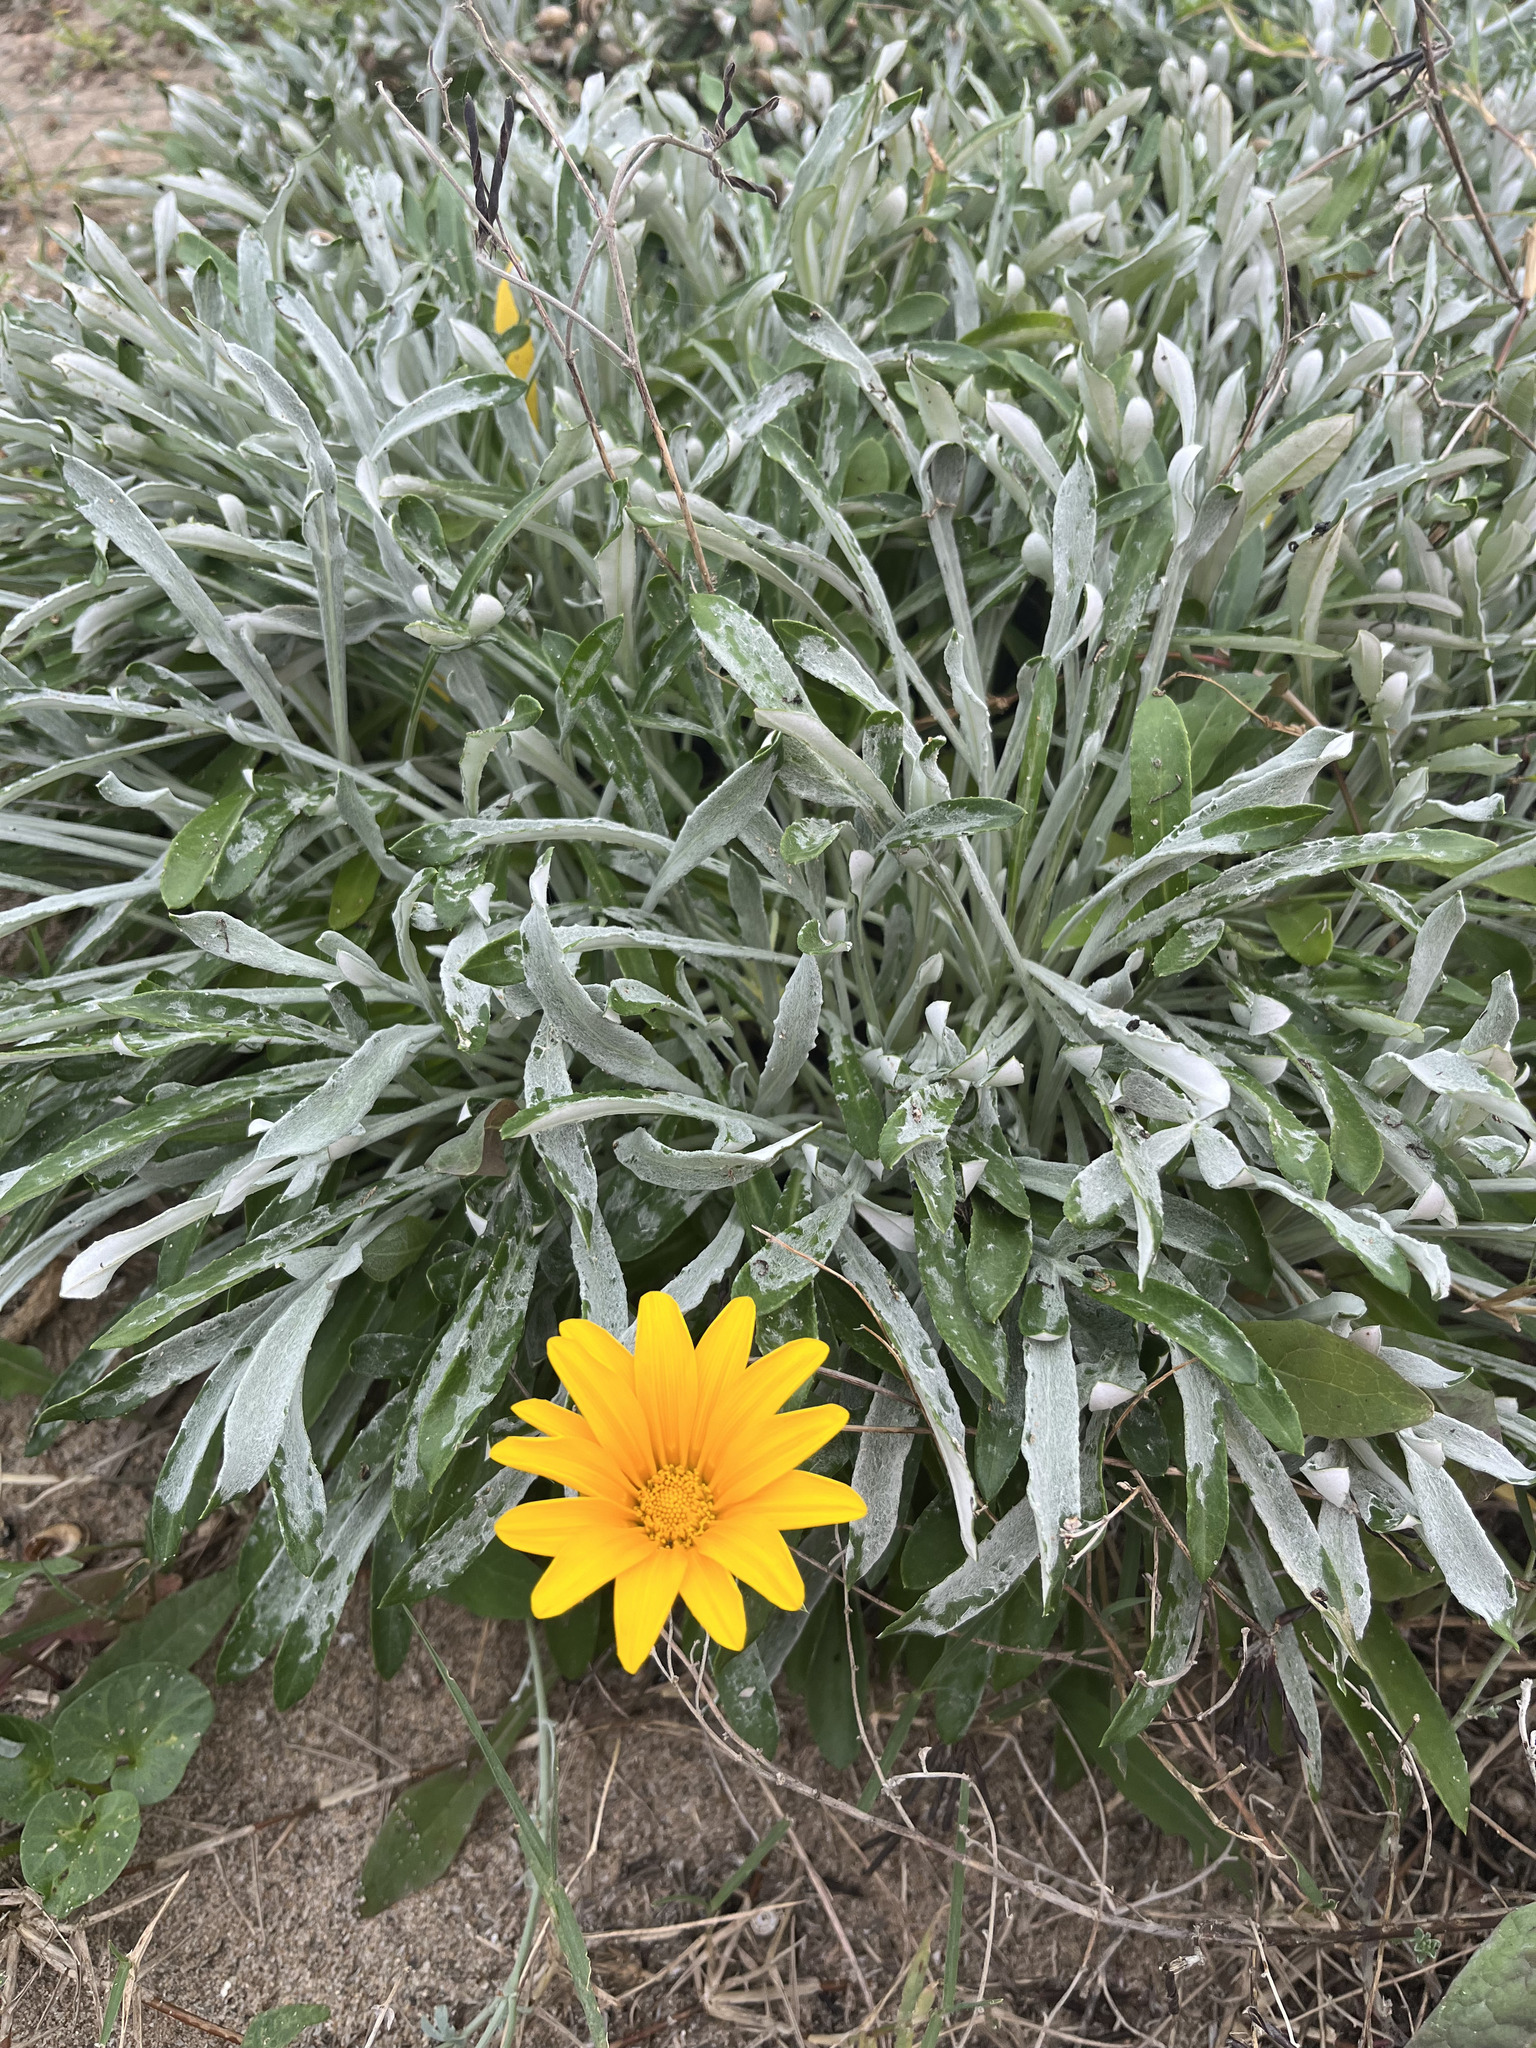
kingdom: Plantae
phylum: Tracheophyta
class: Magnoliopsida
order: Asterales
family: Asteraceae
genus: Gazania
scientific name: Gazania rigens
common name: Treasureflower
